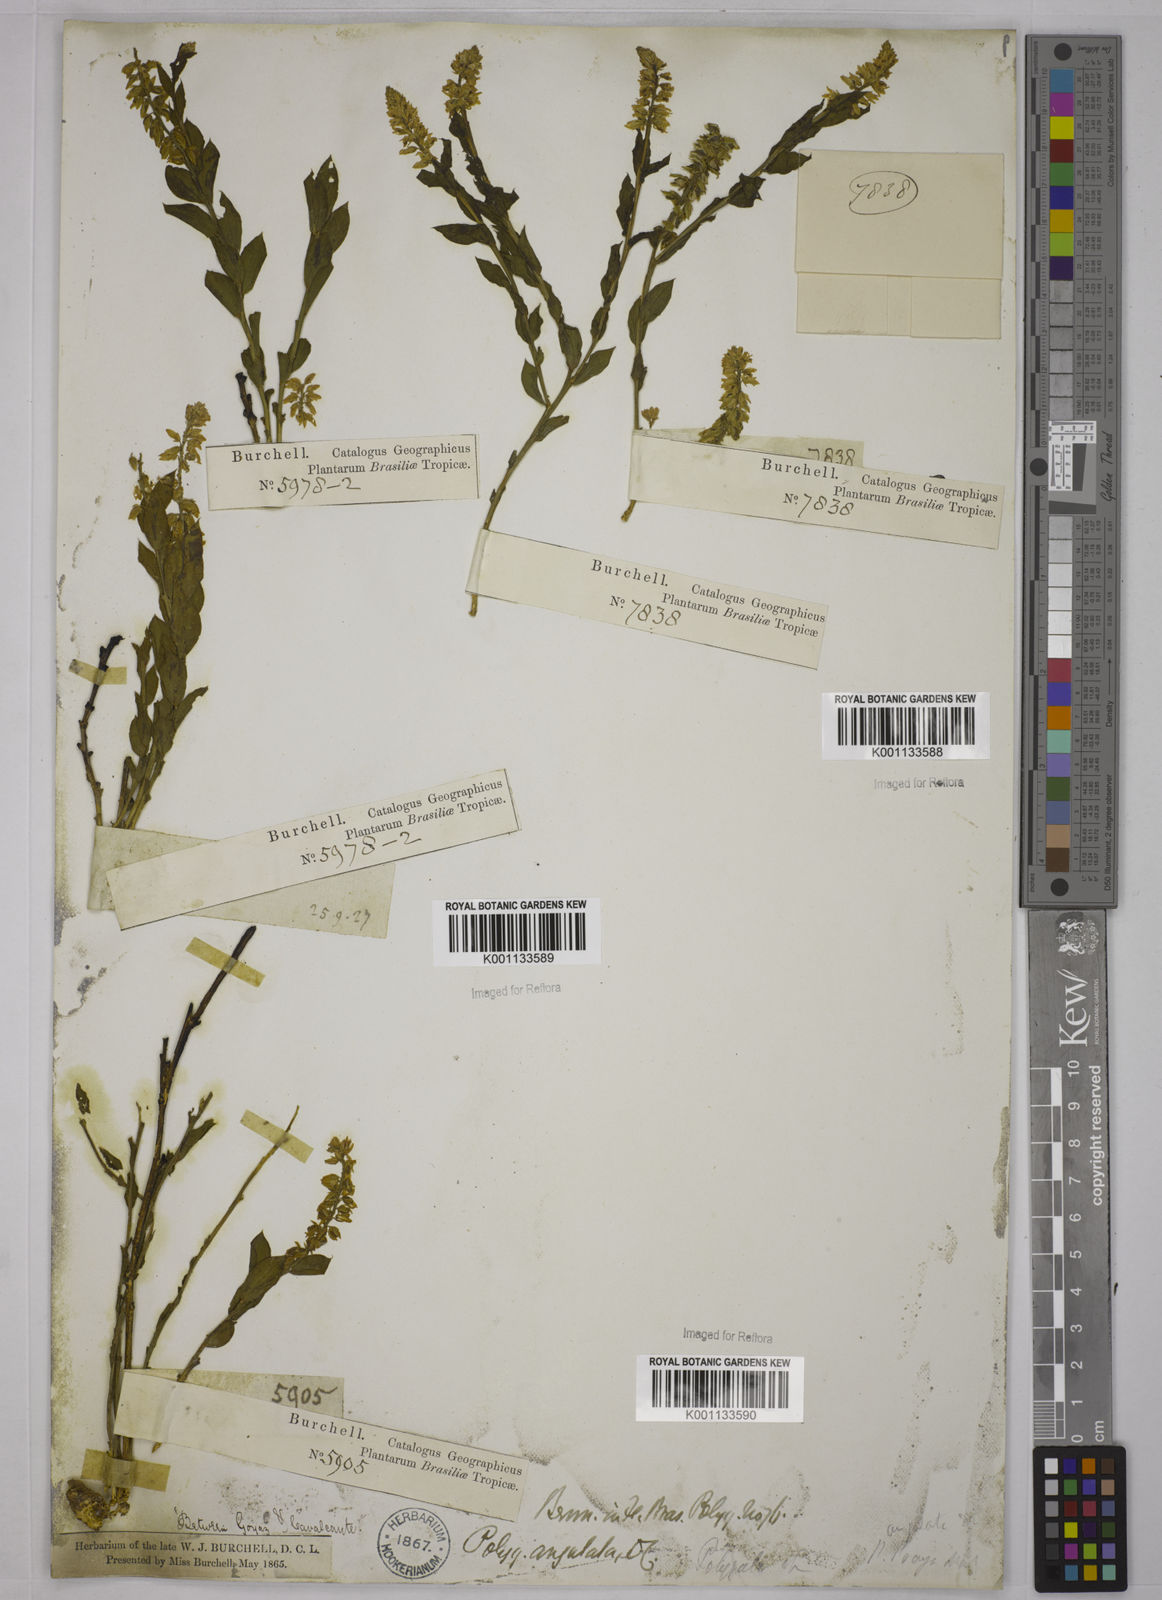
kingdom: Plantae
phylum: Tracheophyta
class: Magnoliopsida
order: Fabales
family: Polygalaceae
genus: Polygala
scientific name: Polygala poaya
